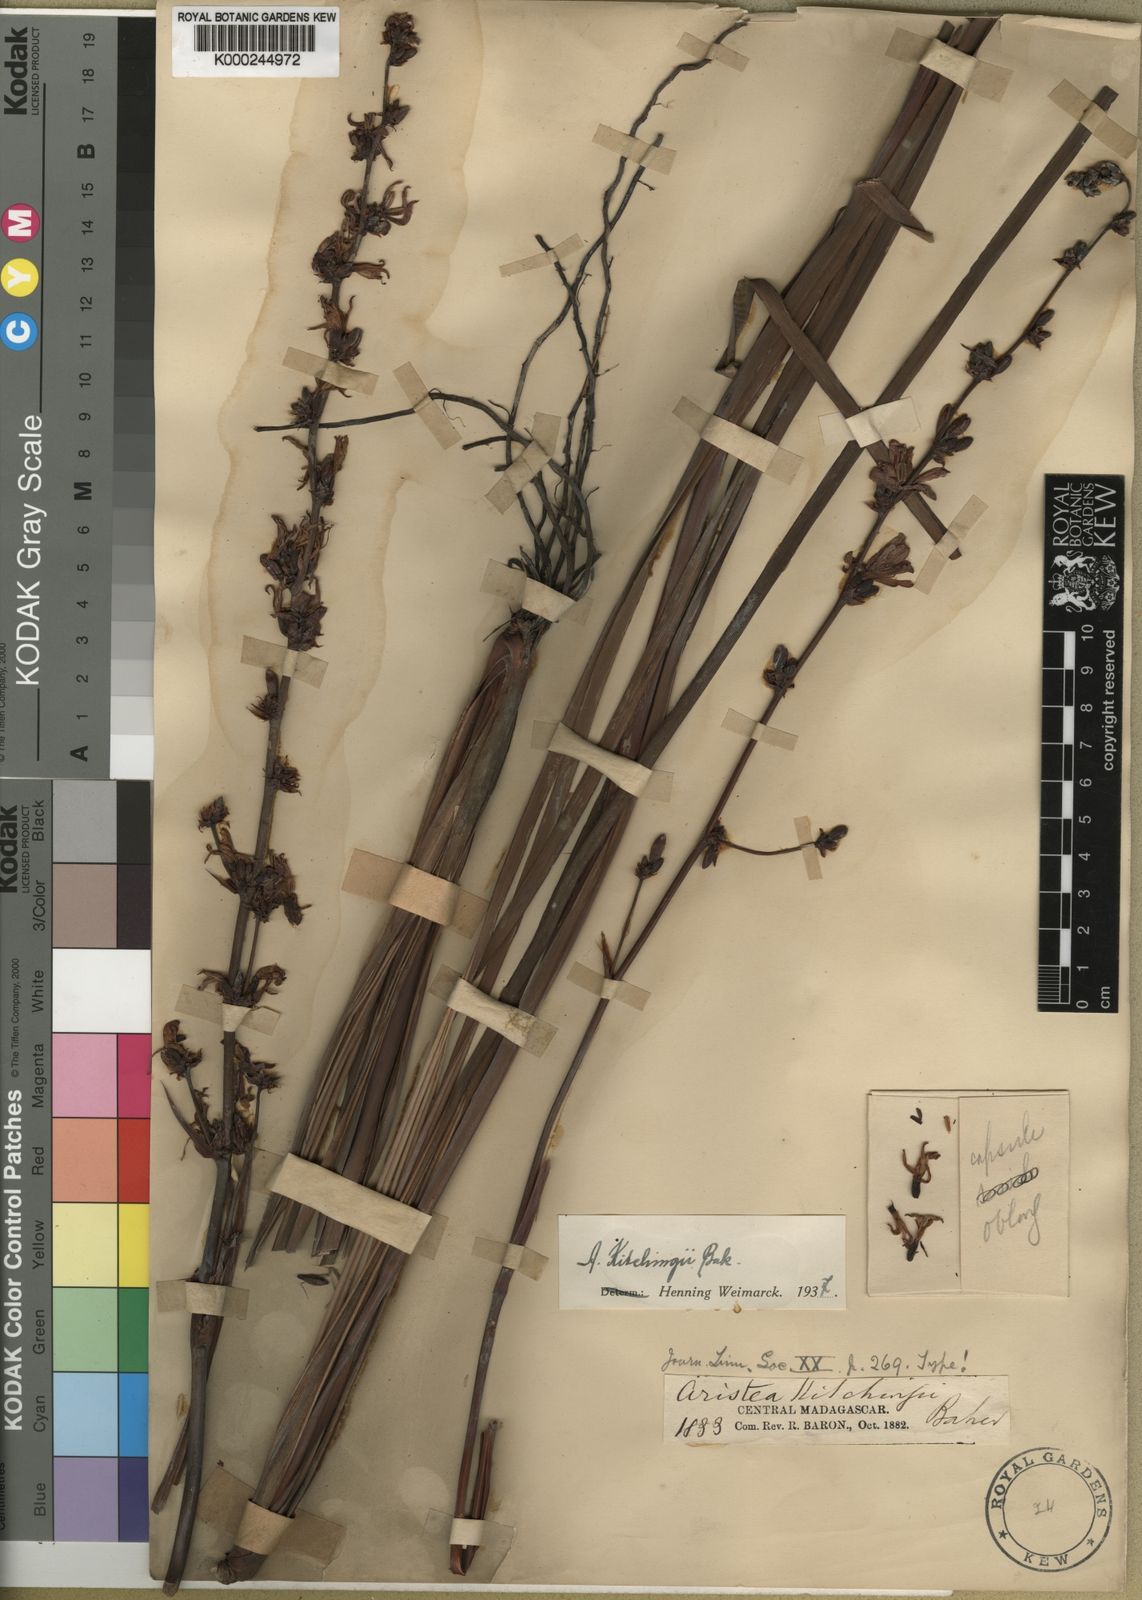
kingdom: Plantae
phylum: Tracheophyta
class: Liliopsida
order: Asparagales
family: Iridaceae
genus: Aristea
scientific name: Aristea kitchingii
